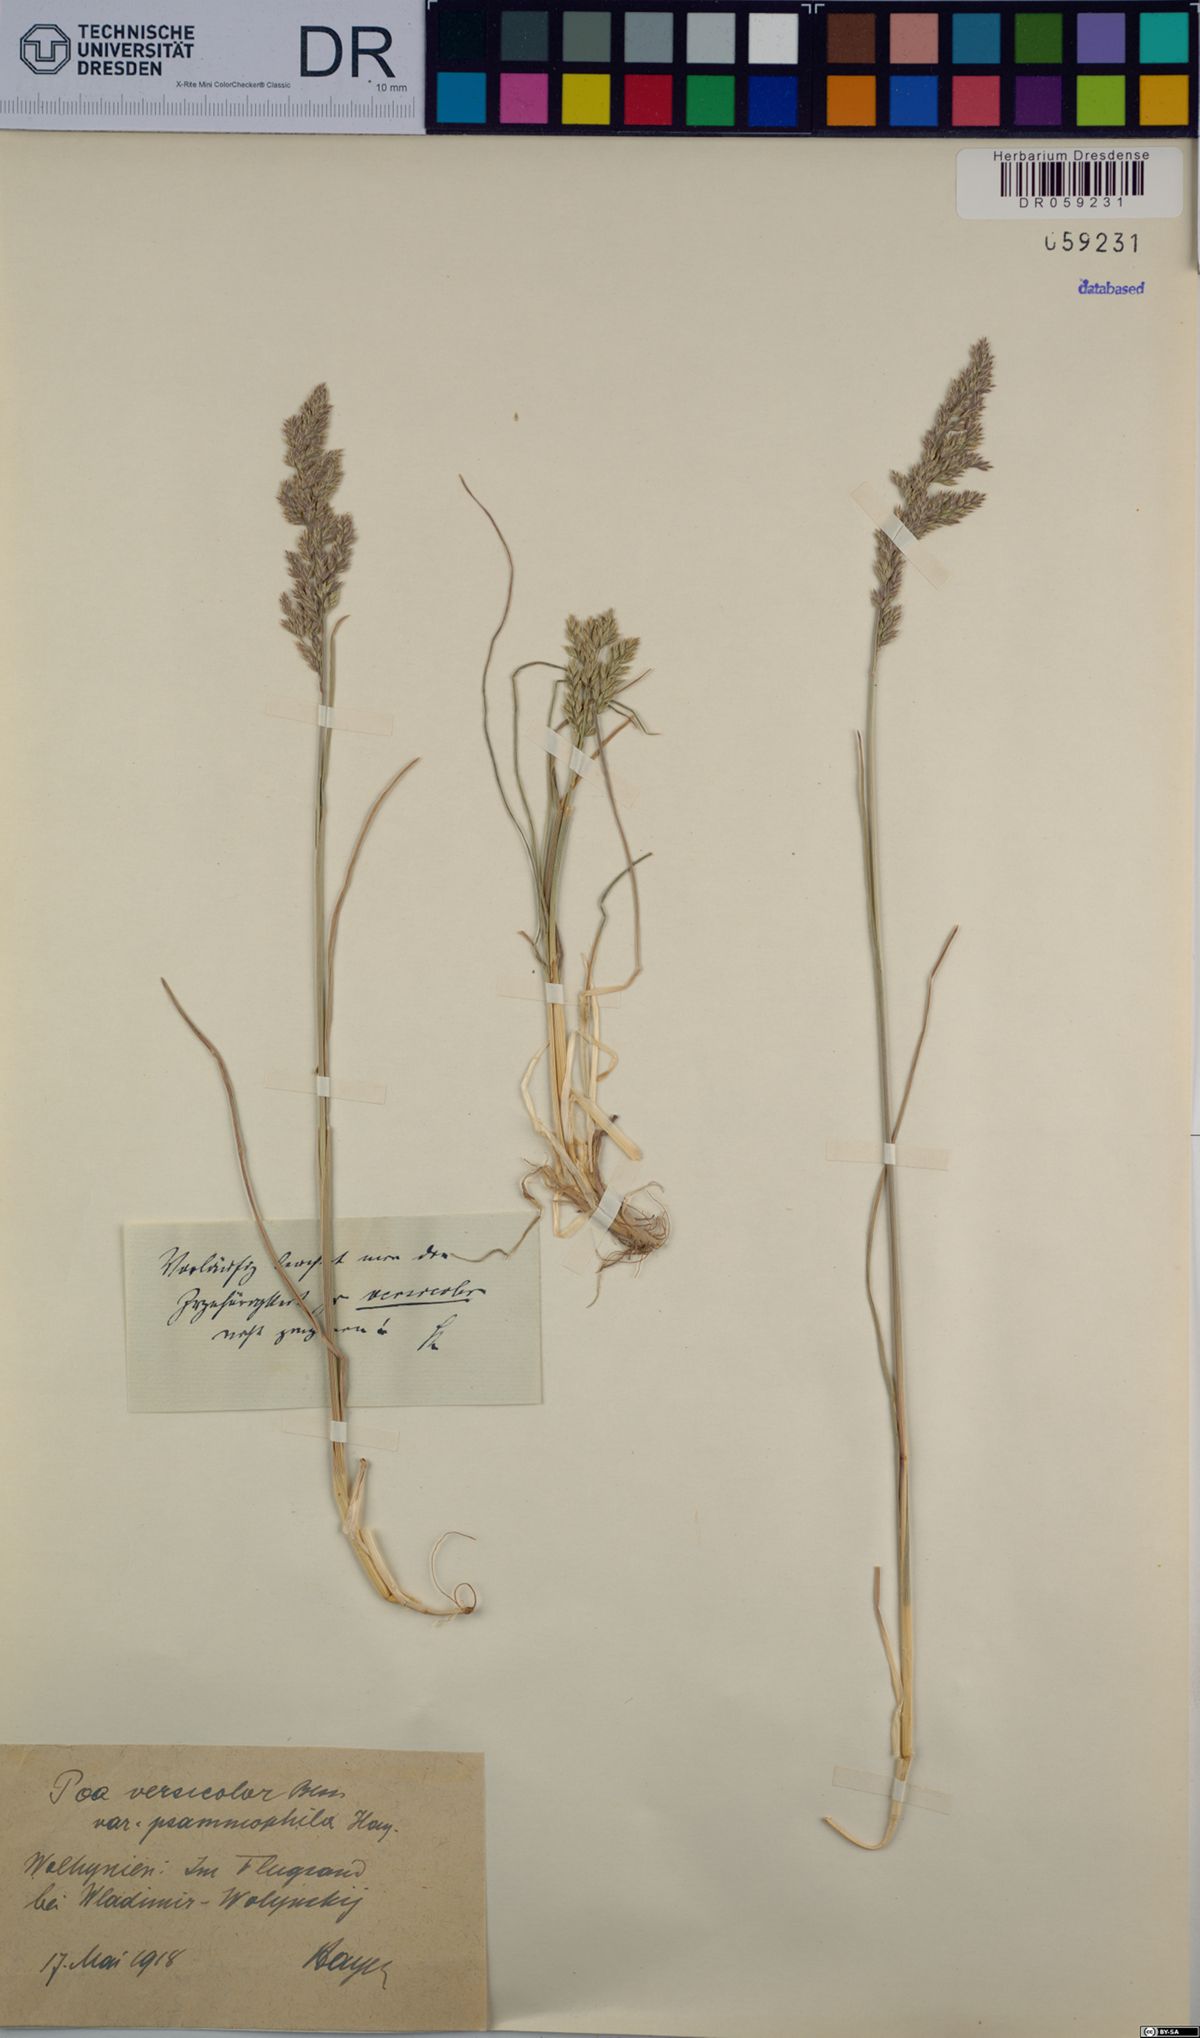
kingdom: Plantae
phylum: Tracheophyta
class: Liliopsida
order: Poales
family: Poaceae
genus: Poa
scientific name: Poa versicolor
